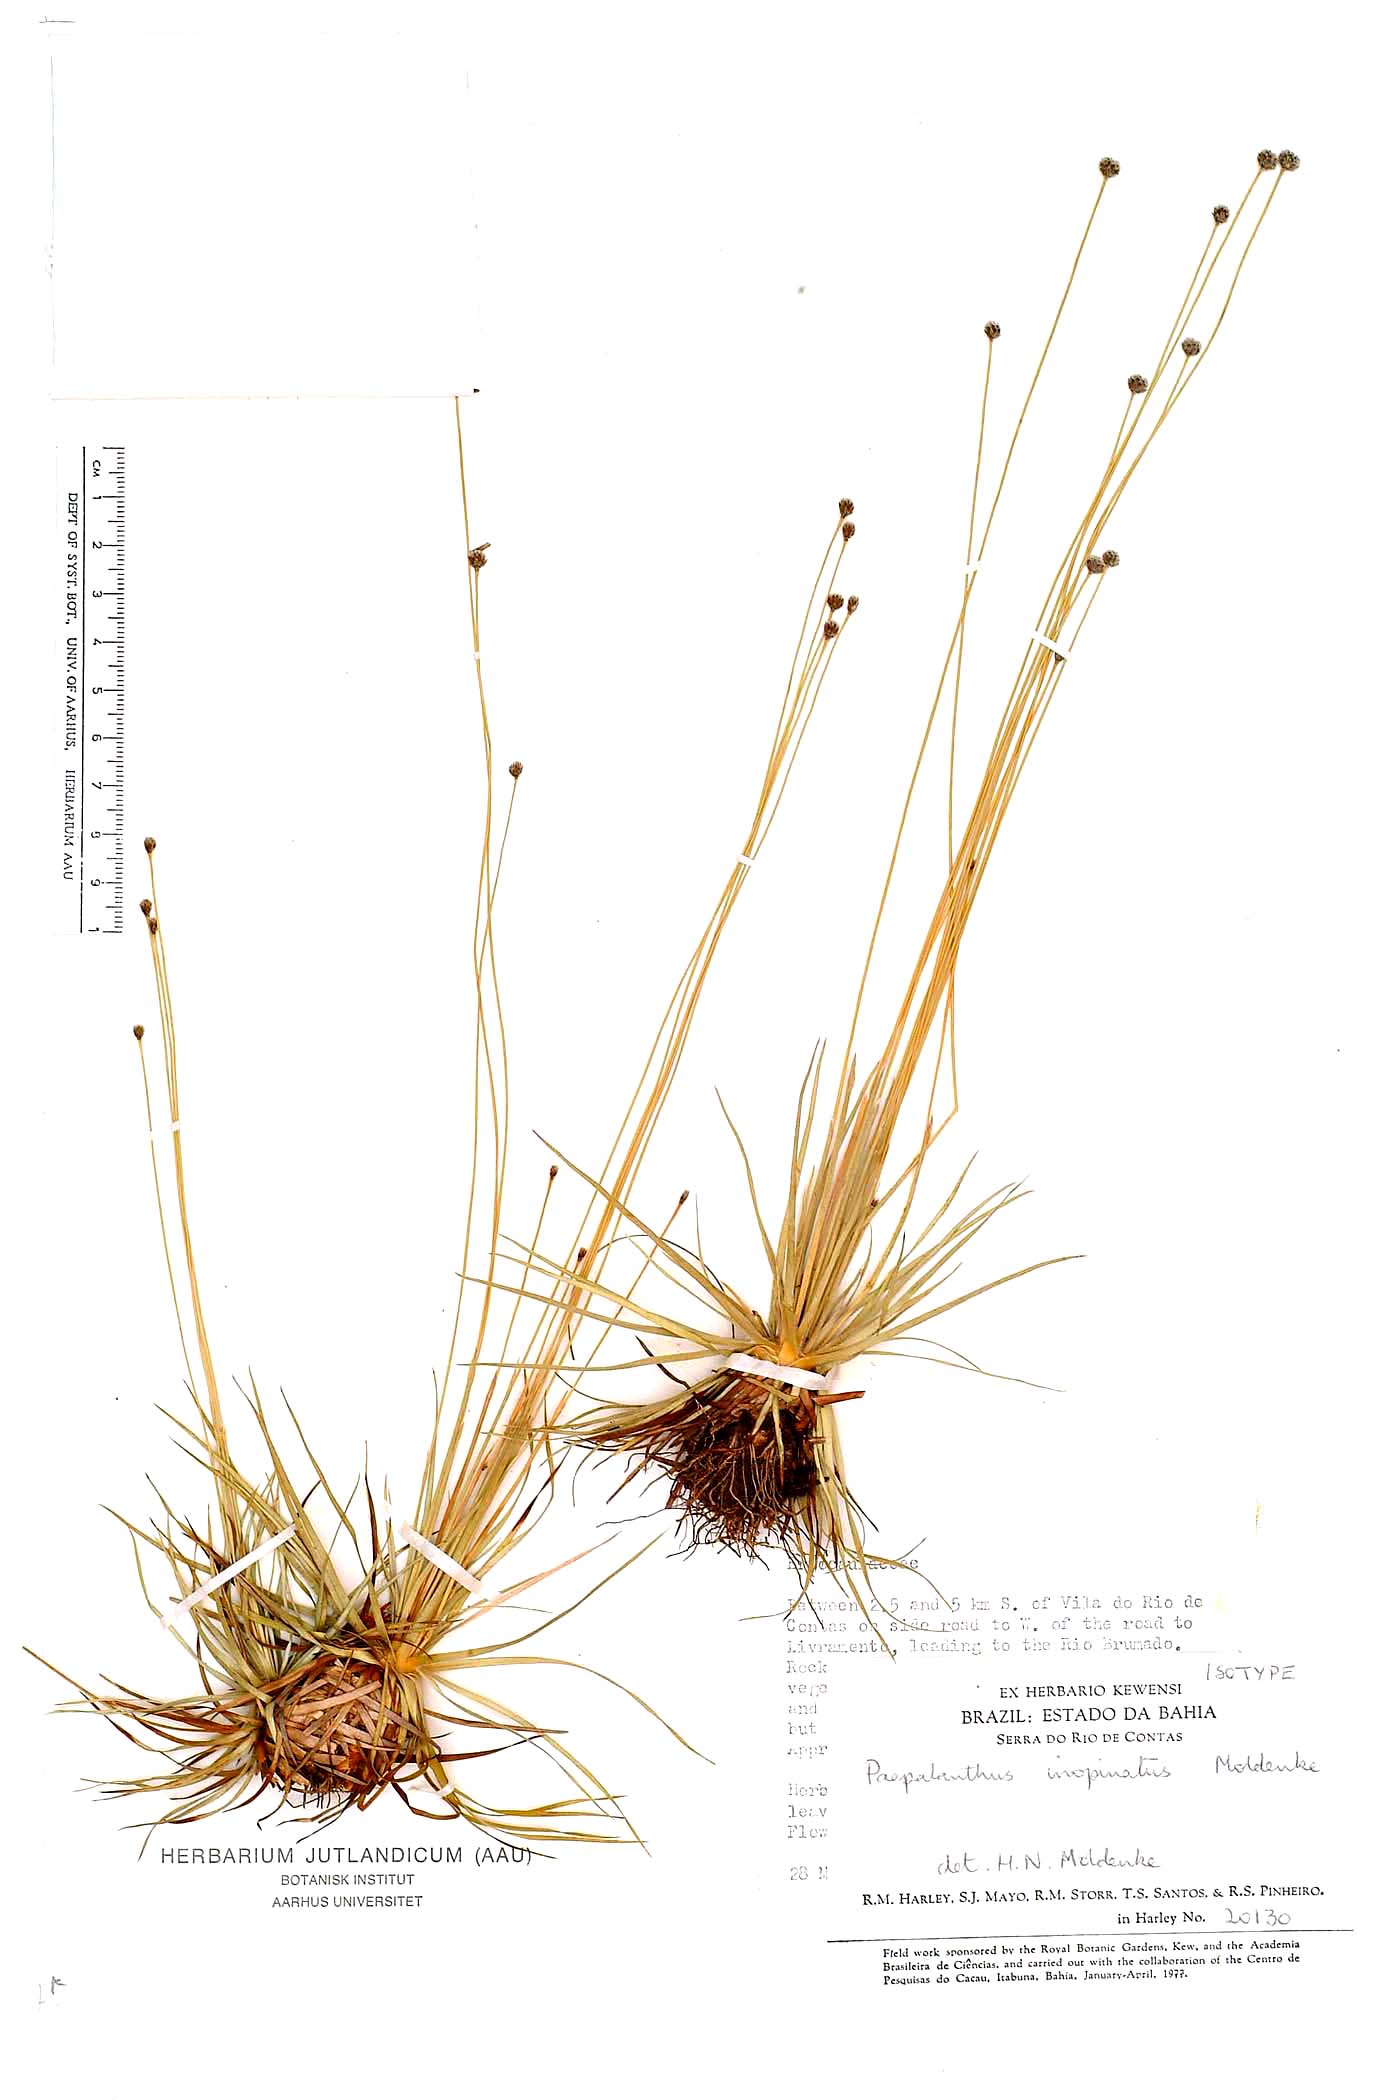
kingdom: Plantae
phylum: Tracheophyta
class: Liliopsida
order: Poales
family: Eriocaulaceae
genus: Paepalanthus
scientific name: Paepalanthus inopinatus
